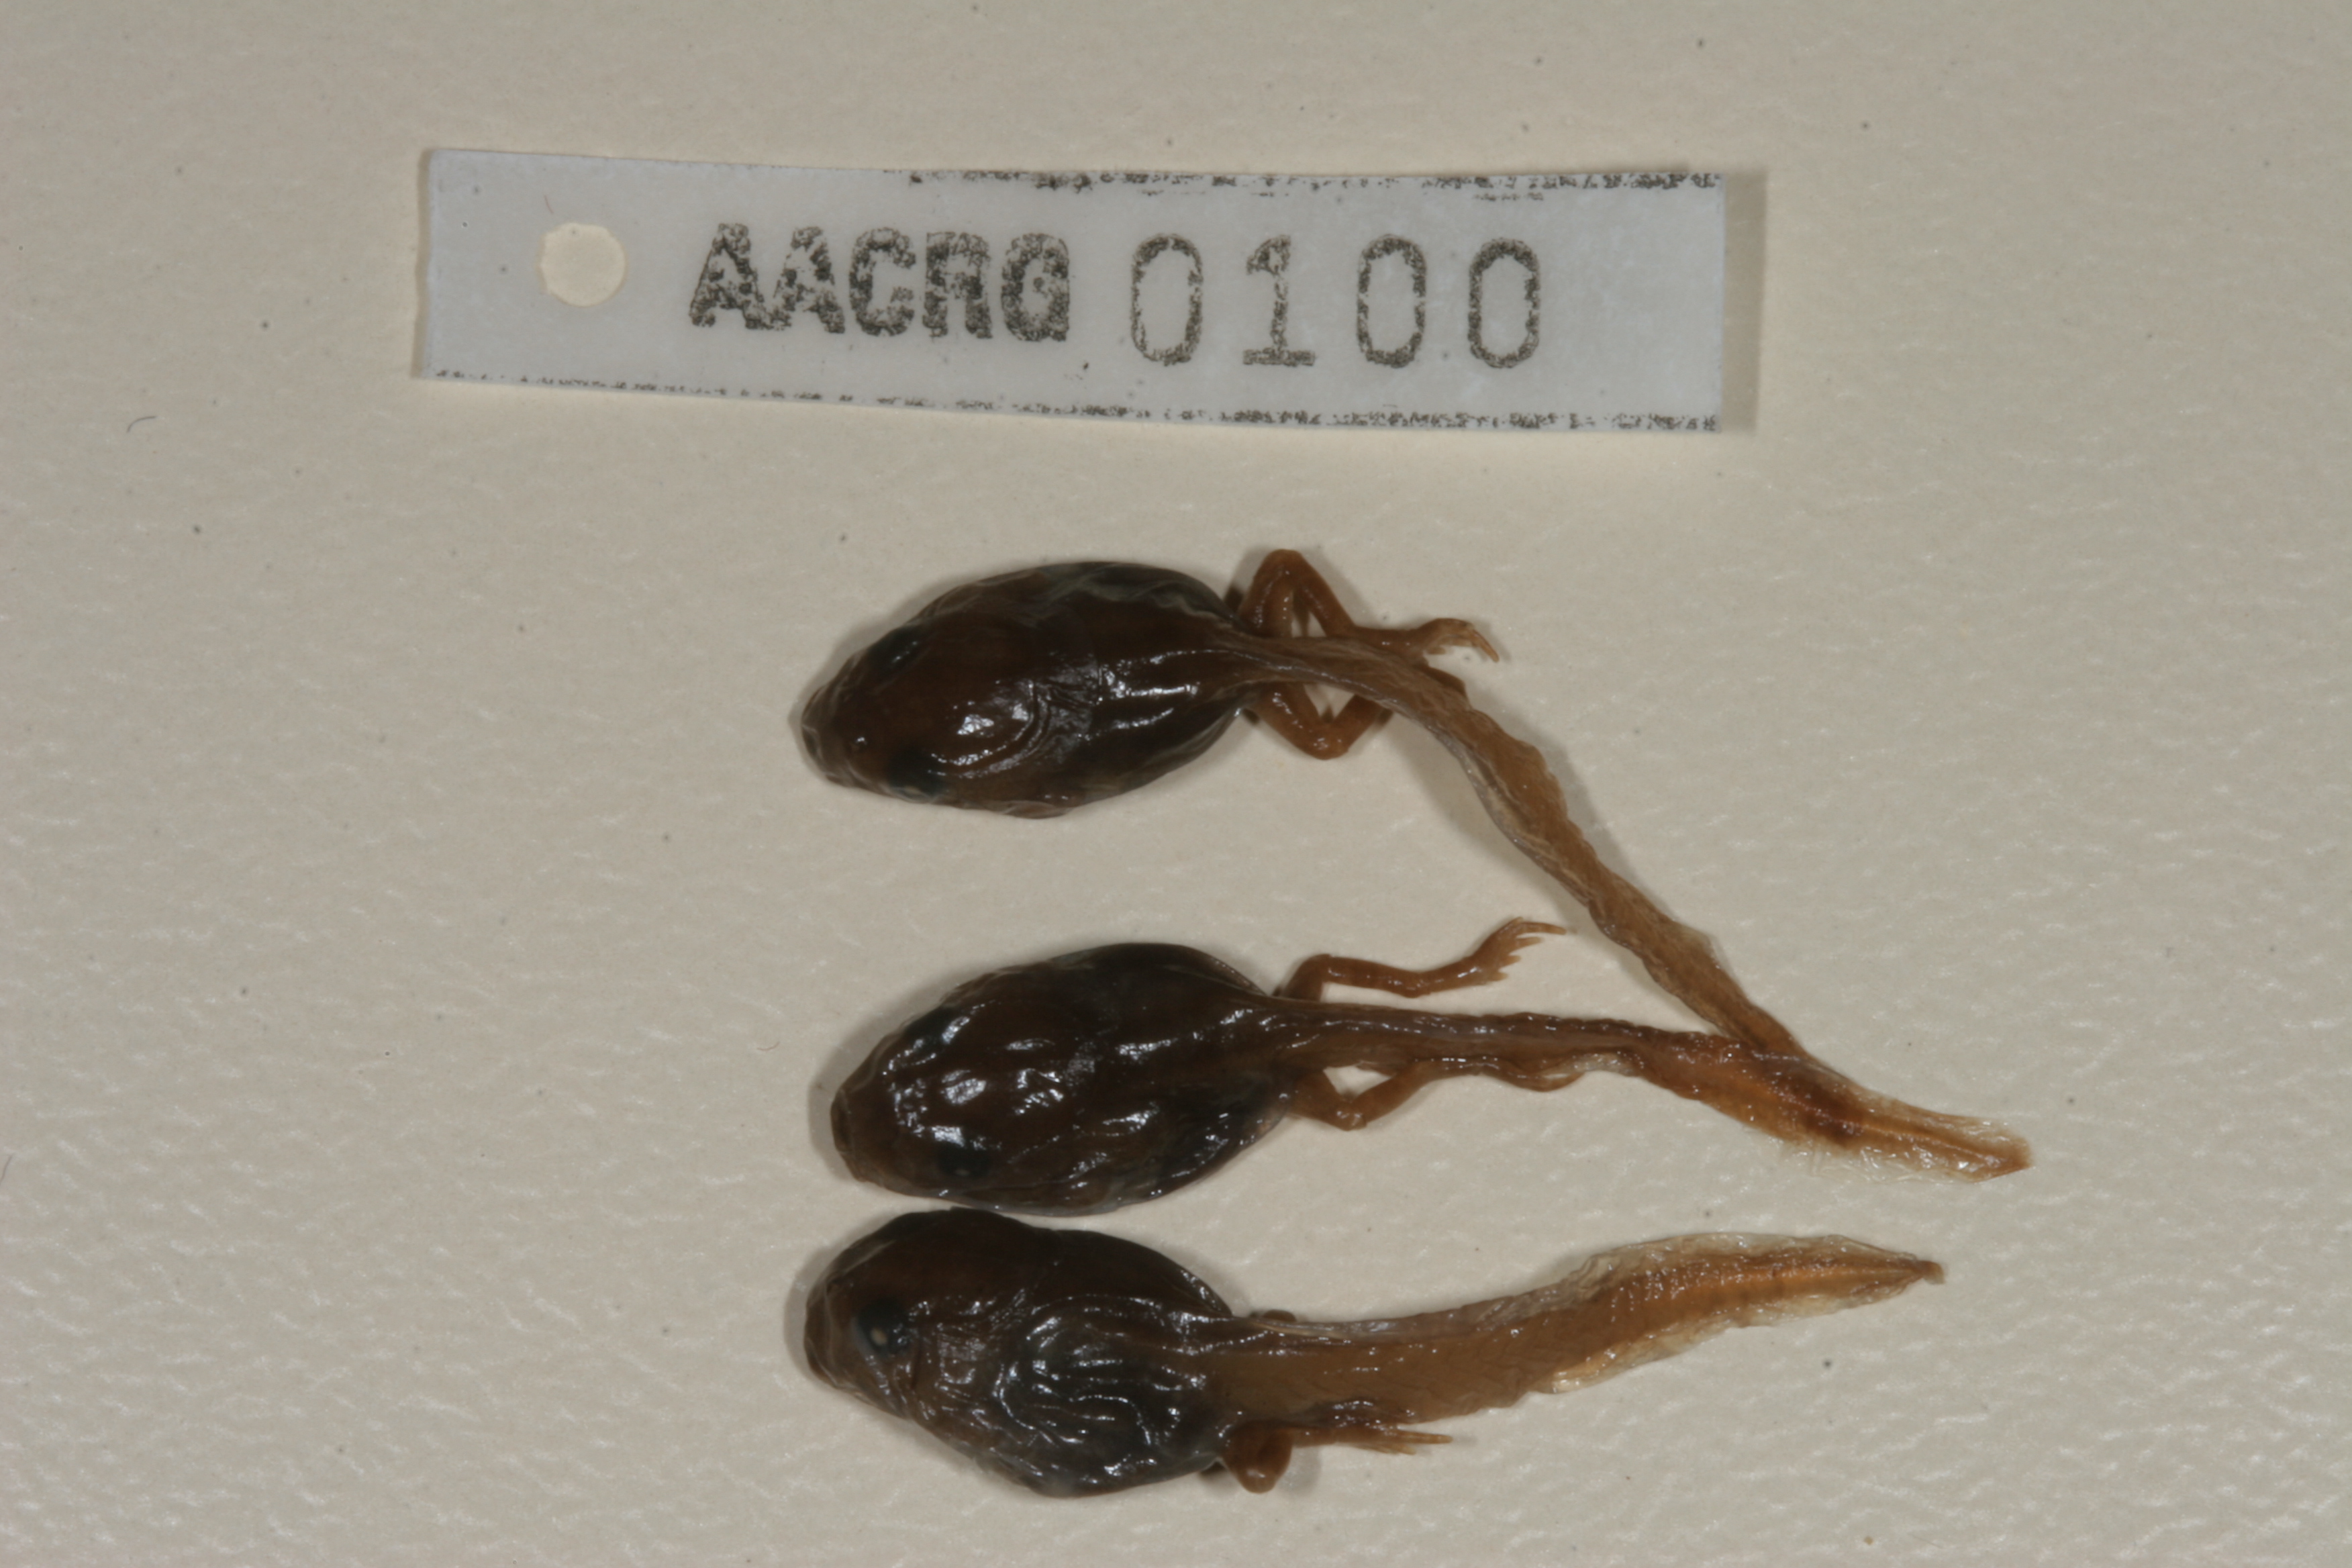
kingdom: Animalia
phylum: Chordata
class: Amphibia
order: Anura
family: Bufonidae
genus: Schismaderma
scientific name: Schismaderma carens
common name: African split-skin toad
